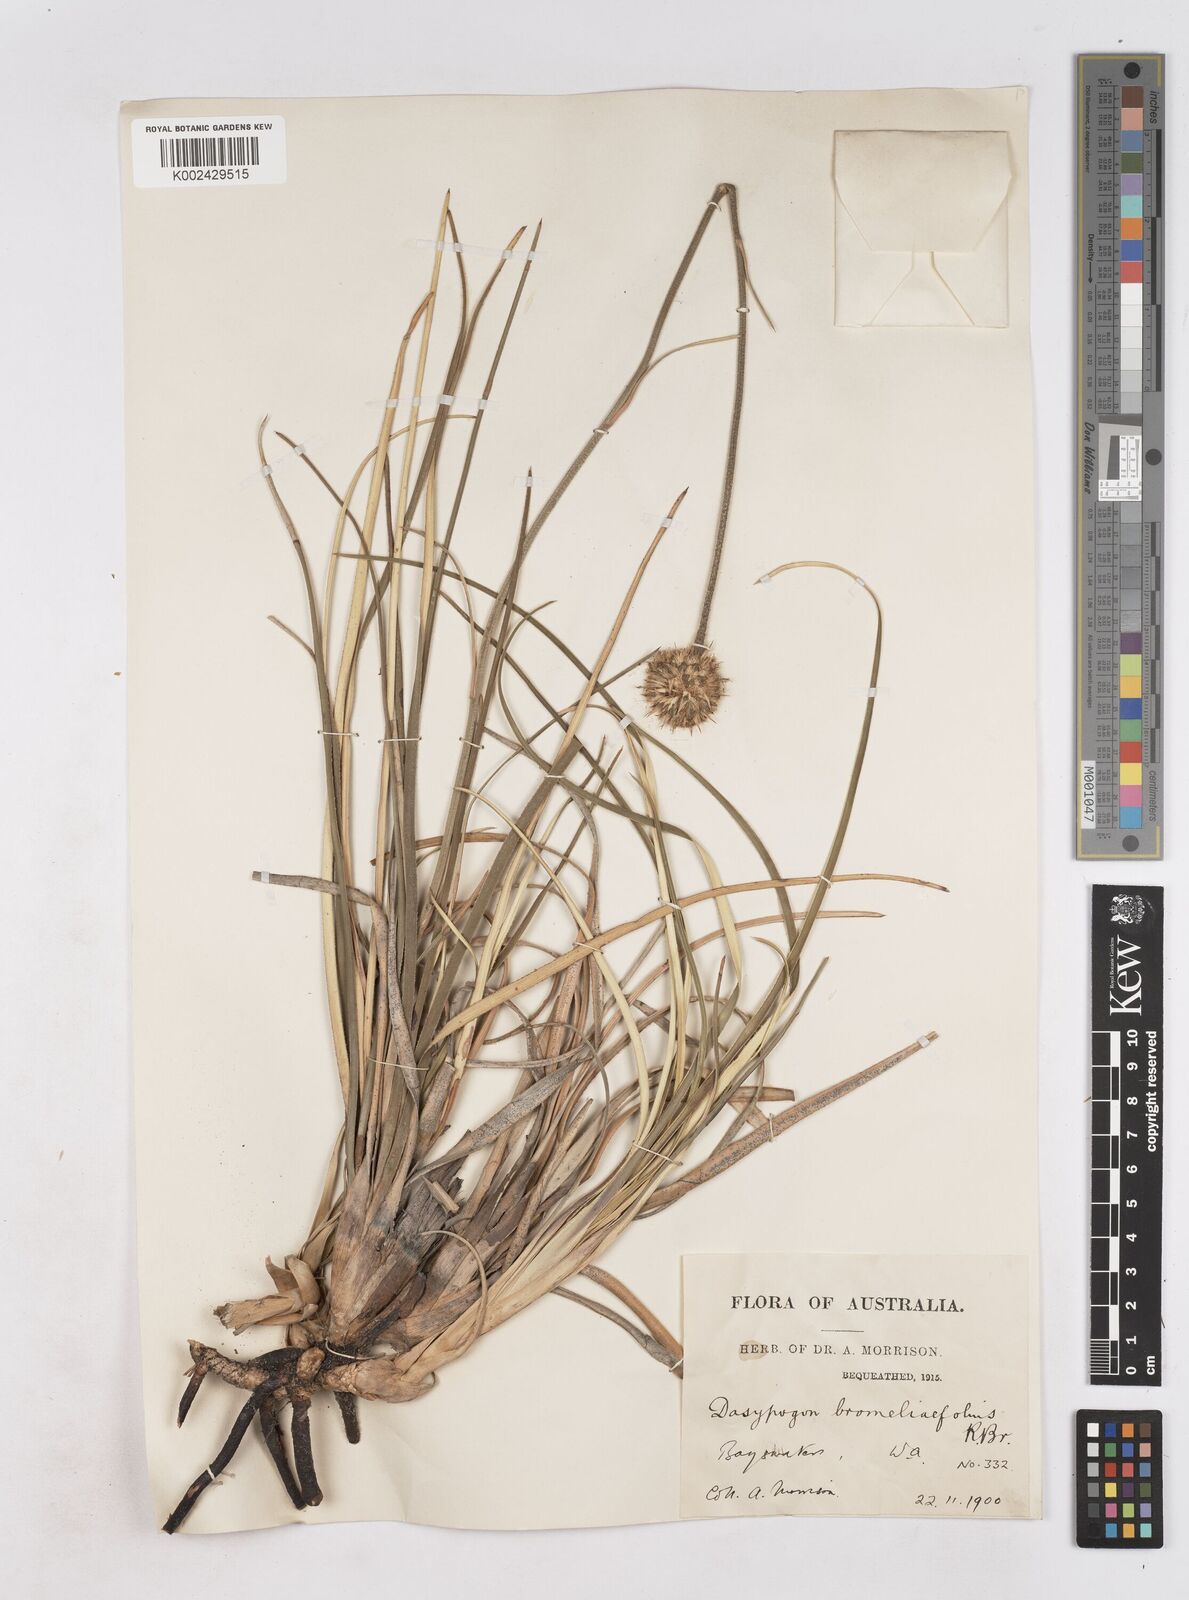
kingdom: Plantae
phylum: Tracheophyta
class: Liliopsida
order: Arecales
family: Dasypogonaceae
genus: Dasypogon
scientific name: Dasypogon bromeliifolius
